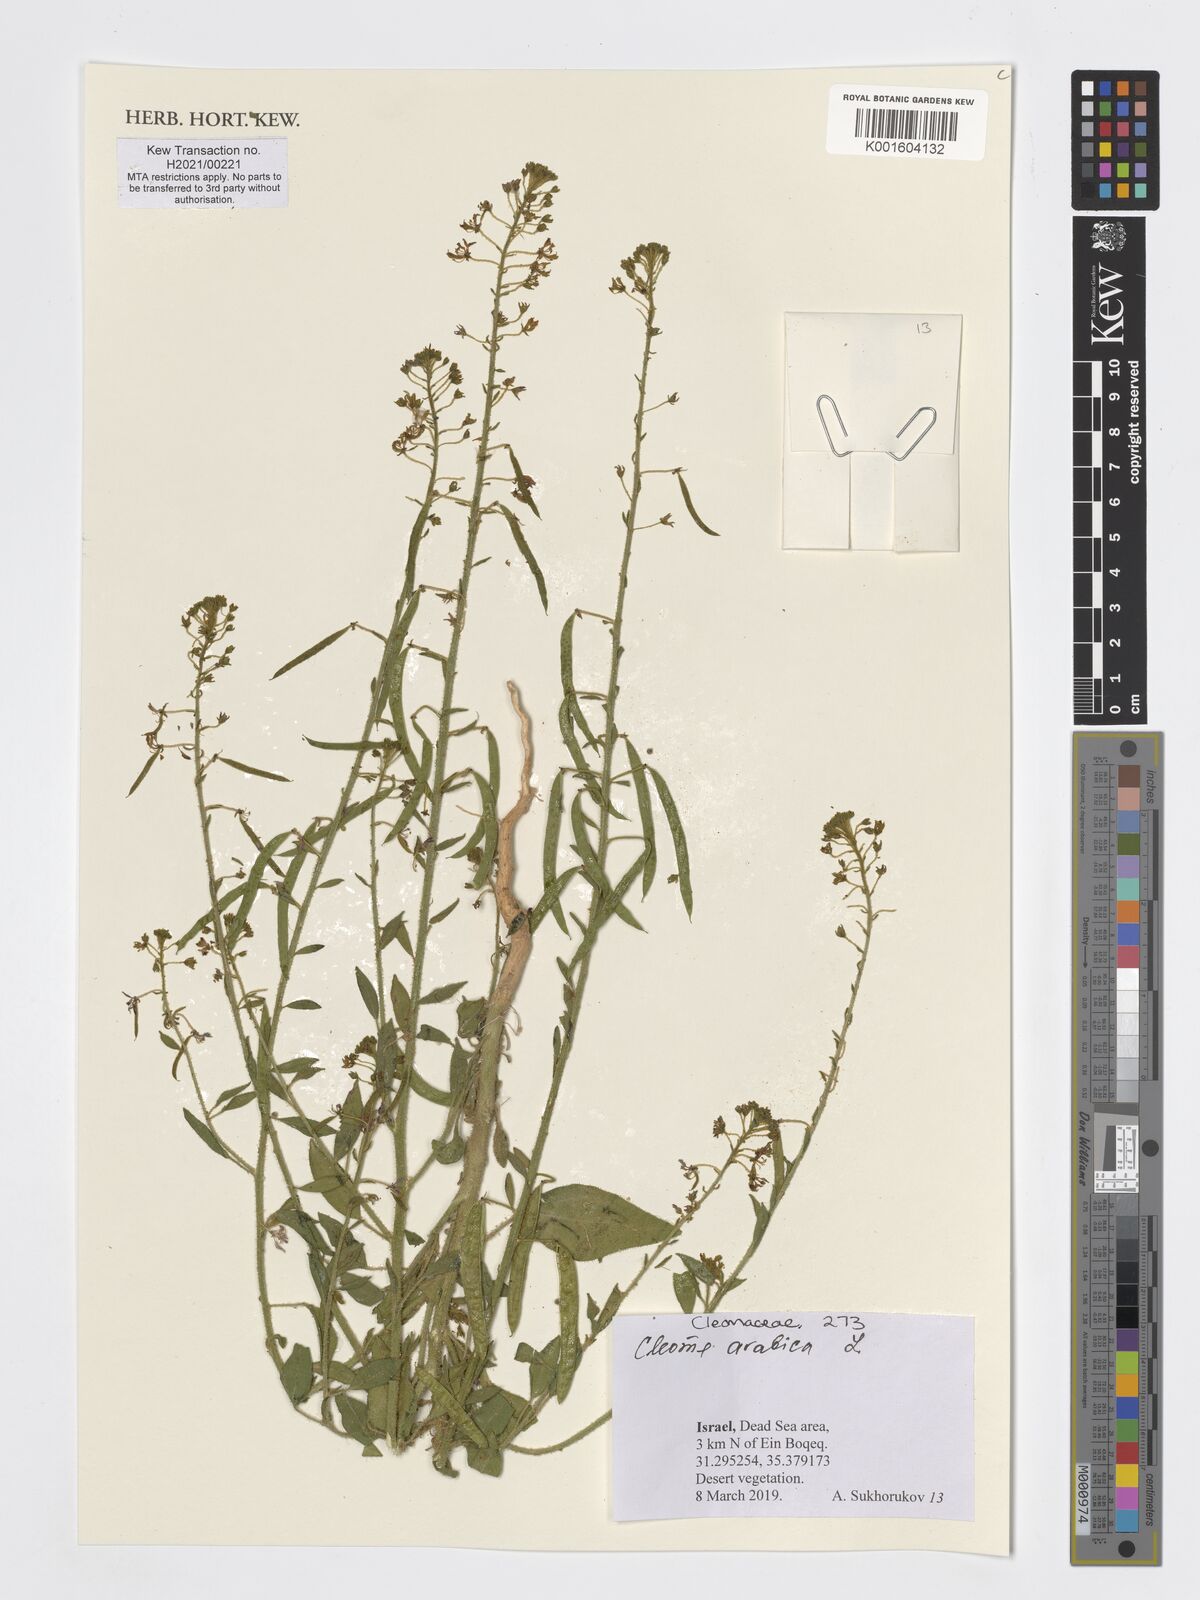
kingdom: Plantae
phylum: Tracheophyta
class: Magnoliopsida
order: Brassicales
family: Cleomaceae
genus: Cleome
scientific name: Cleome arabica
